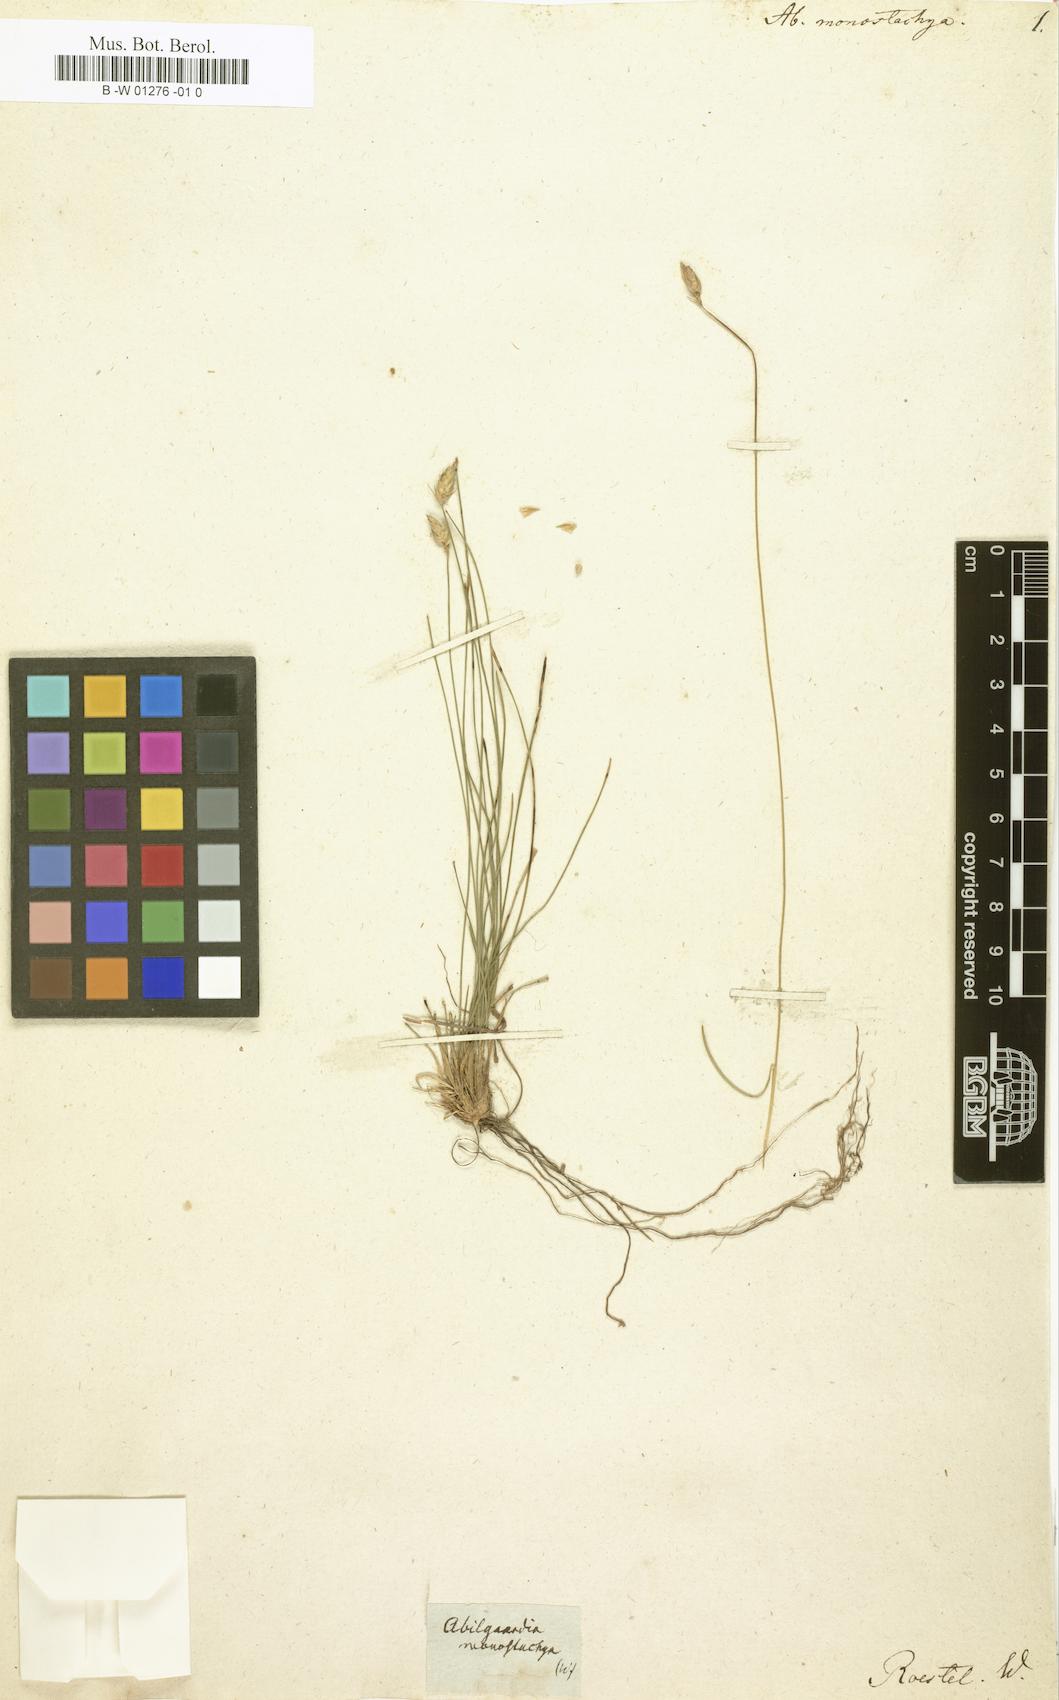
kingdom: Plantae
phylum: Tracheophyta
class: Liliopsida
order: Poales
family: Cyperaceae
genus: Abildgaardia
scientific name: Abildgaardia ovata
